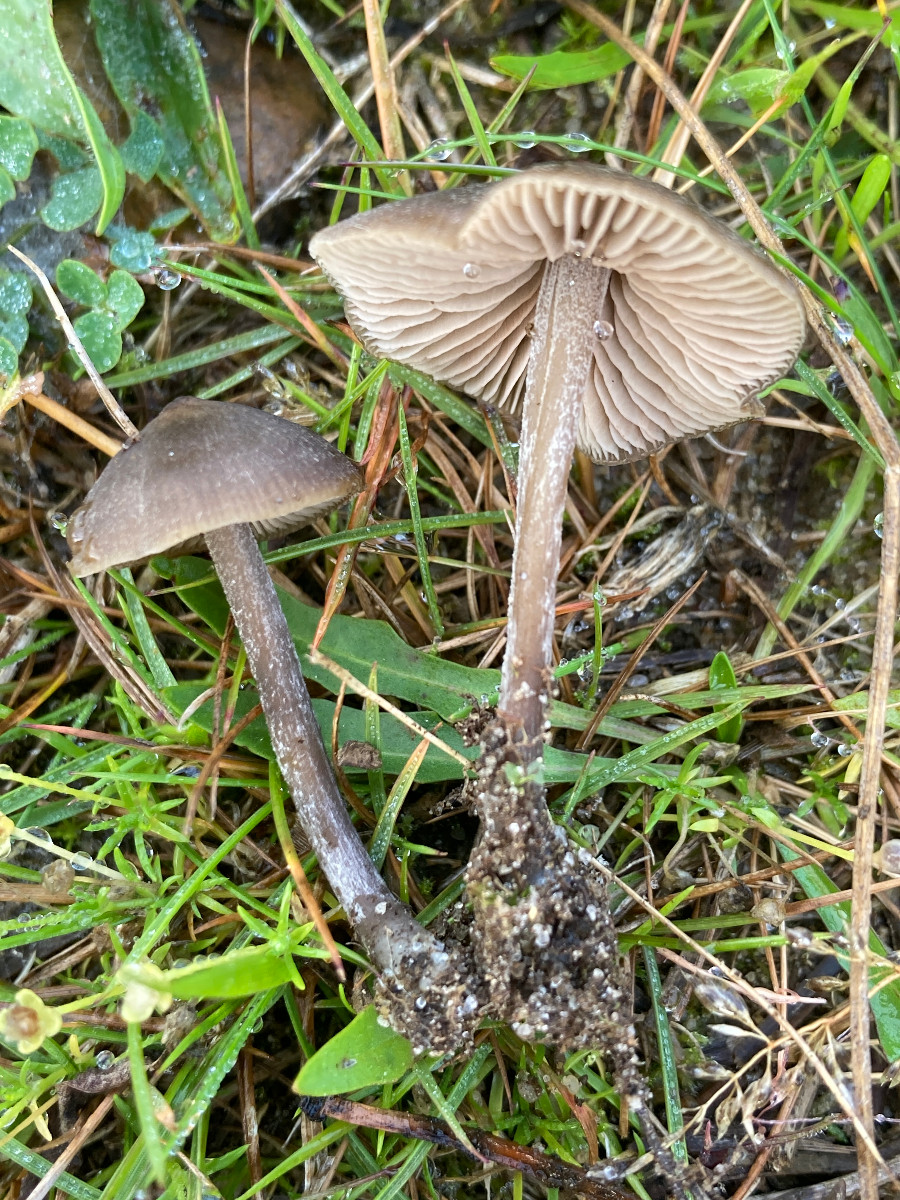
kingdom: Fungi
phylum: Basidiomycota
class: Agaricomycetes
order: Agaricales
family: Entolomataceae
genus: Entoloma
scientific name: Entoloma
